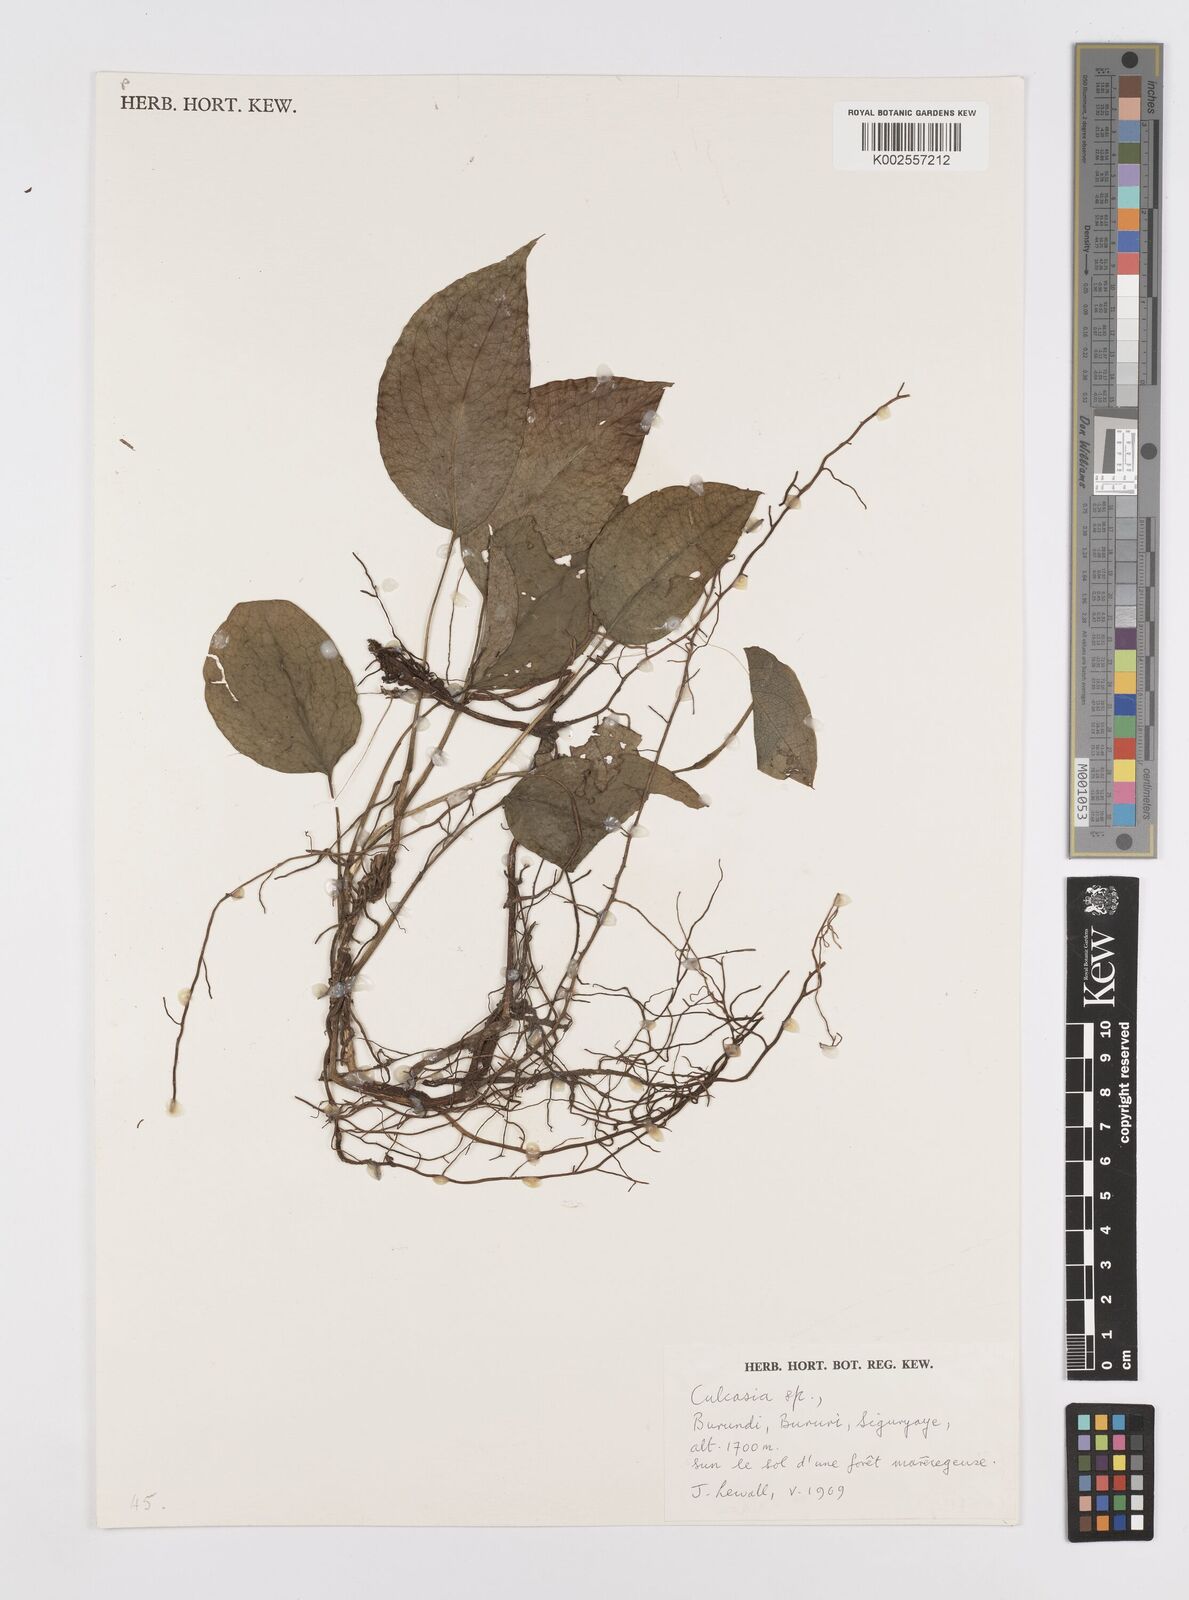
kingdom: Plantae
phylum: Tracheophyta
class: Liliopsida
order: Alismatales
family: Araceae
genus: Culcasia
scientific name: Culcasia
